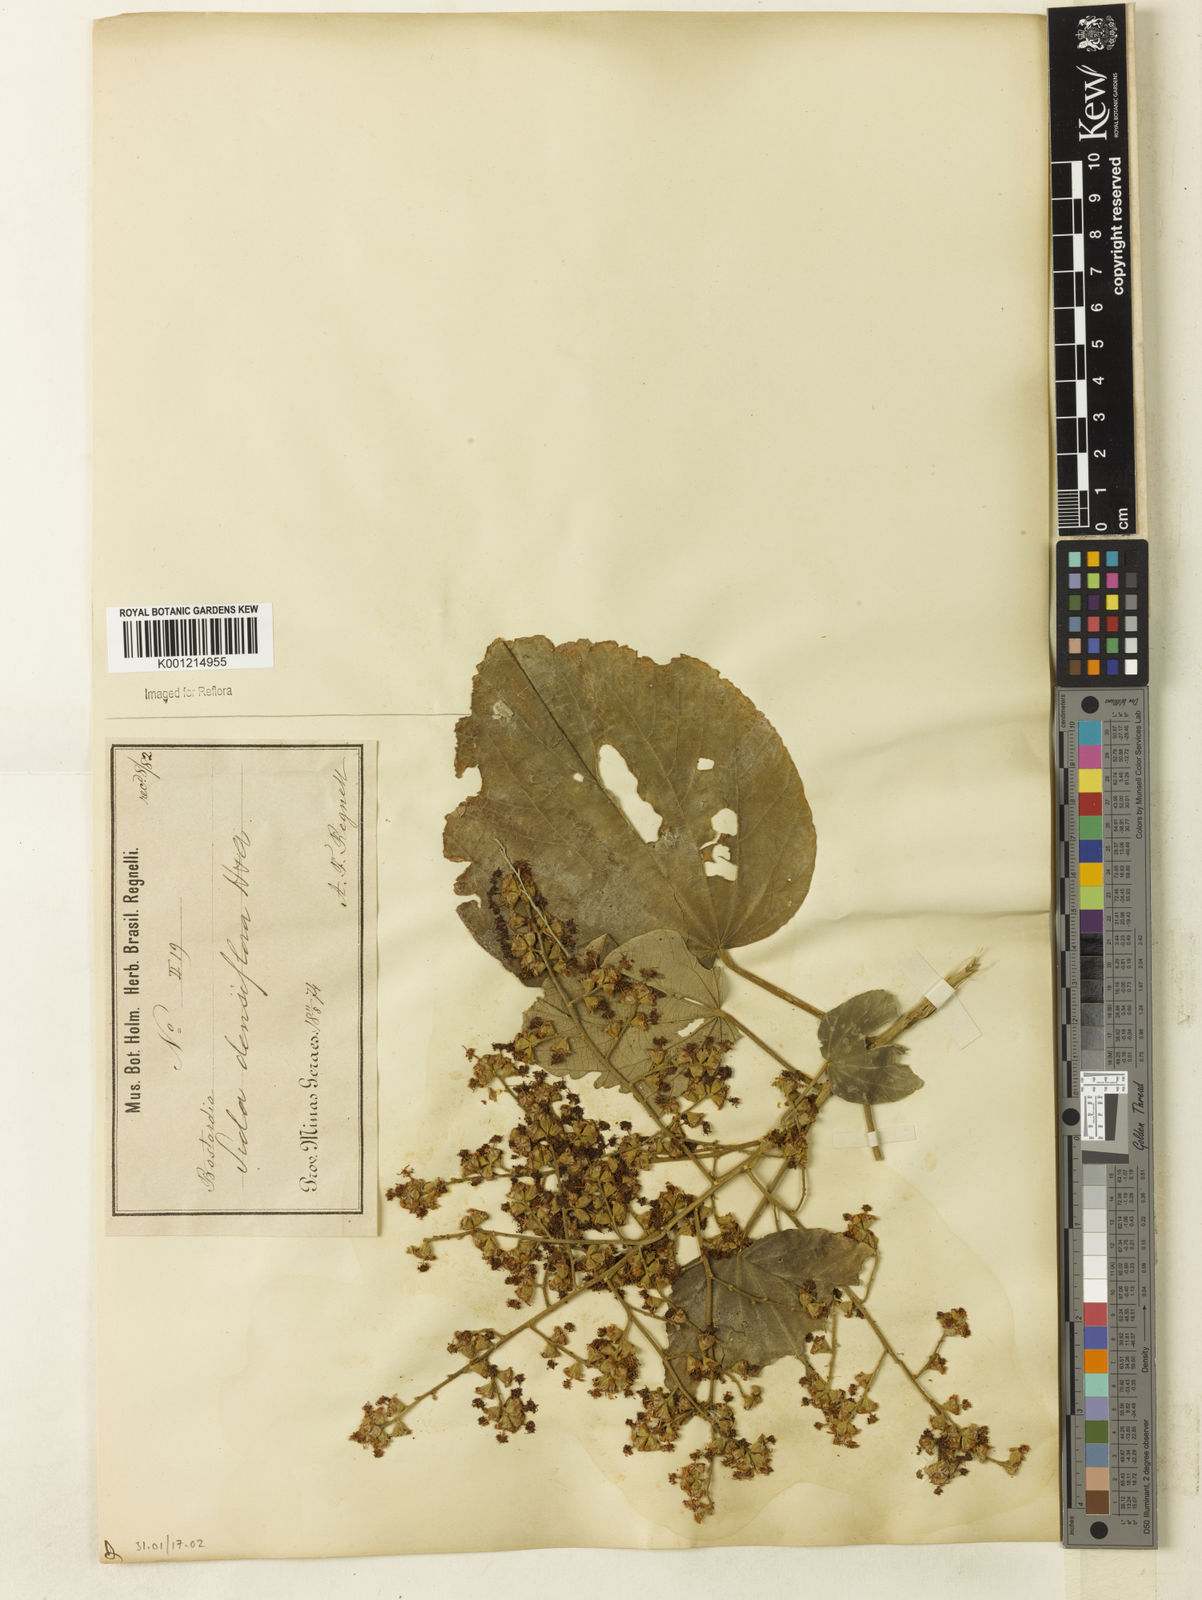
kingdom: Plantae
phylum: Tracheophyta
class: Magnoliopsida
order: Malvales
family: Malvaceae
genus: Bastardiopsis
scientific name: Bastardiopsis densiflora
